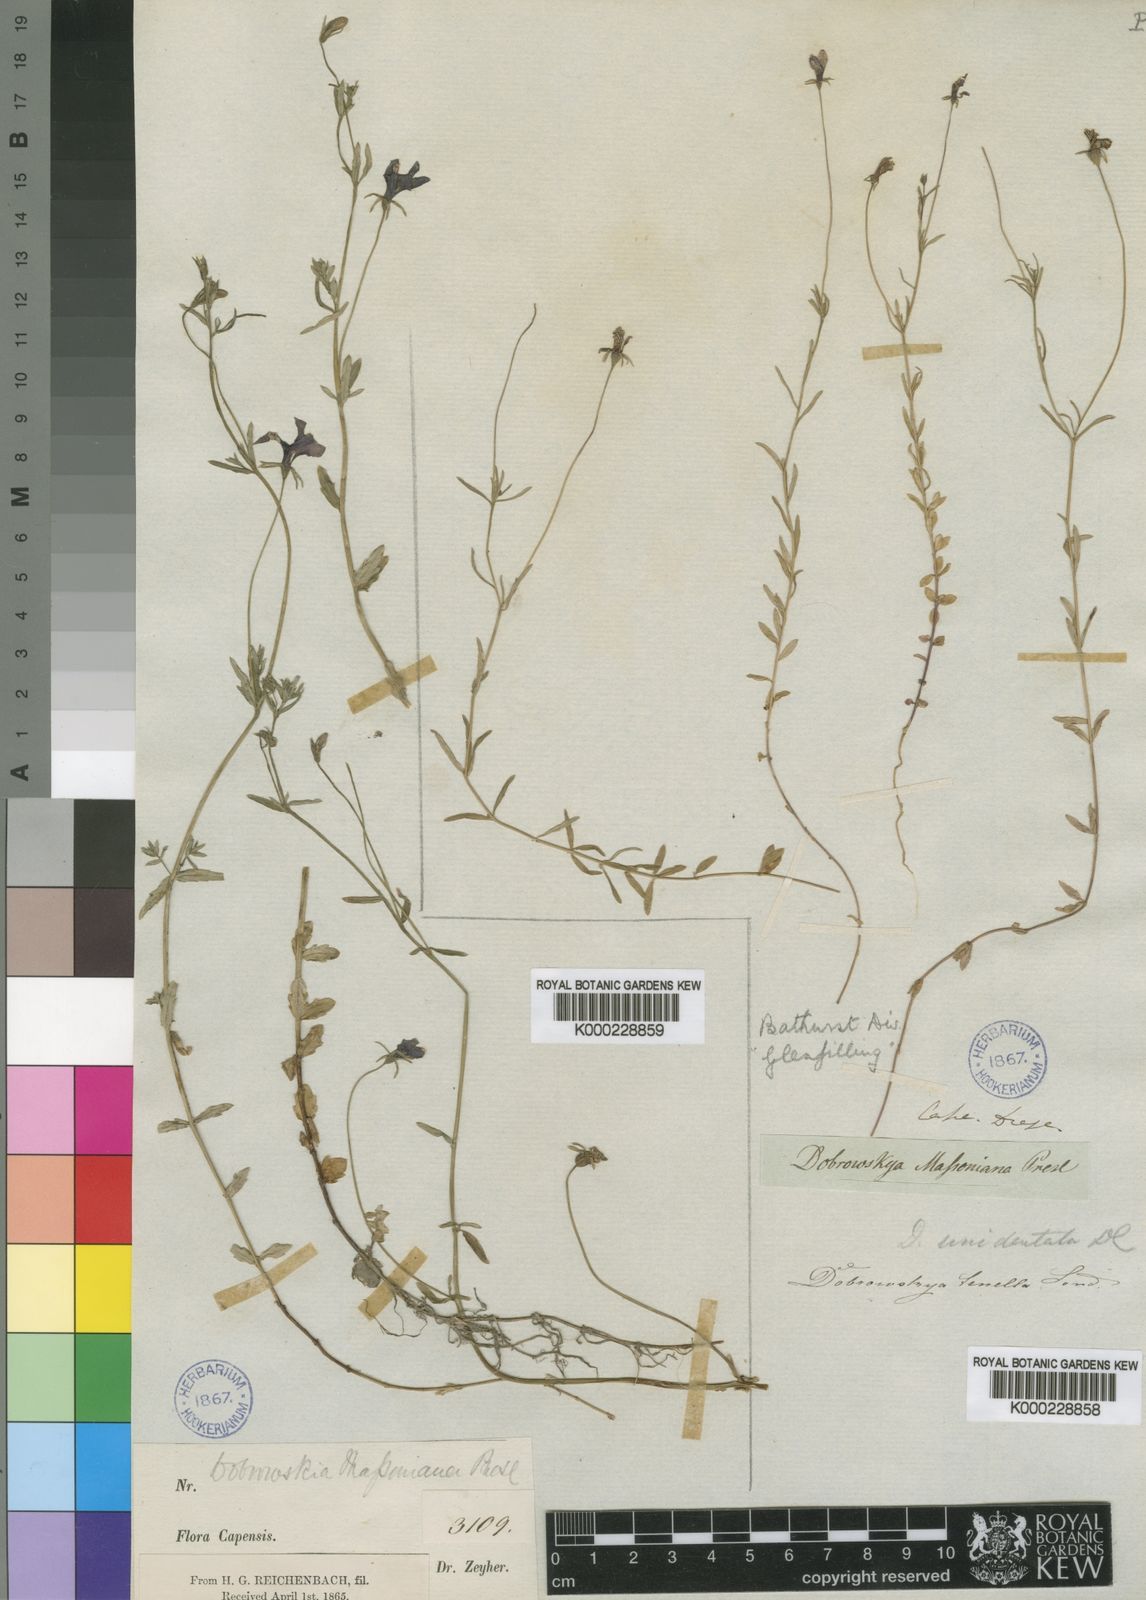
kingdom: Plantae
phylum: Tracheophyta
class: Magnoliopsida
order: Asterales
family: Campanulaceae
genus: Monopsis
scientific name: Monopsis unidentata
